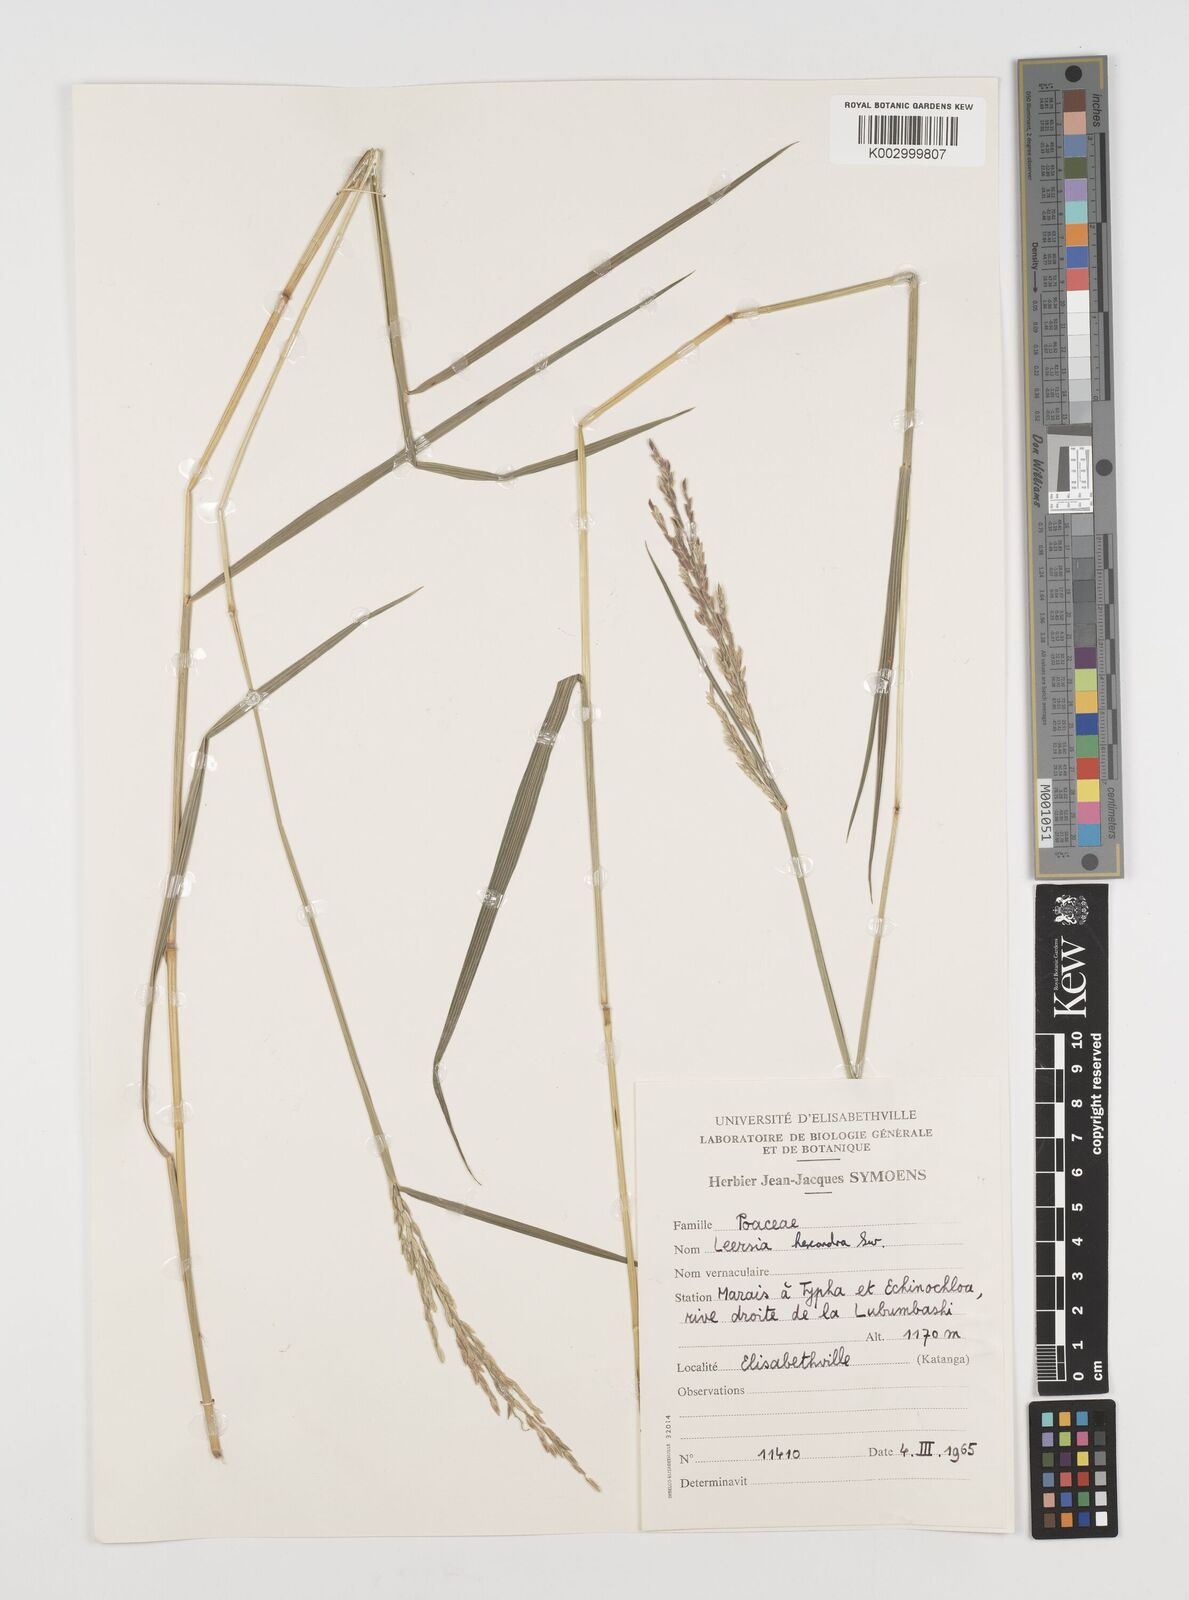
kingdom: Plantae
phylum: Tracheophyta
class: Liliopsida
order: Poales
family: Poaceae
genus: Leersia
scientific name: Leersia hexandra
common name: Southern cut grass
